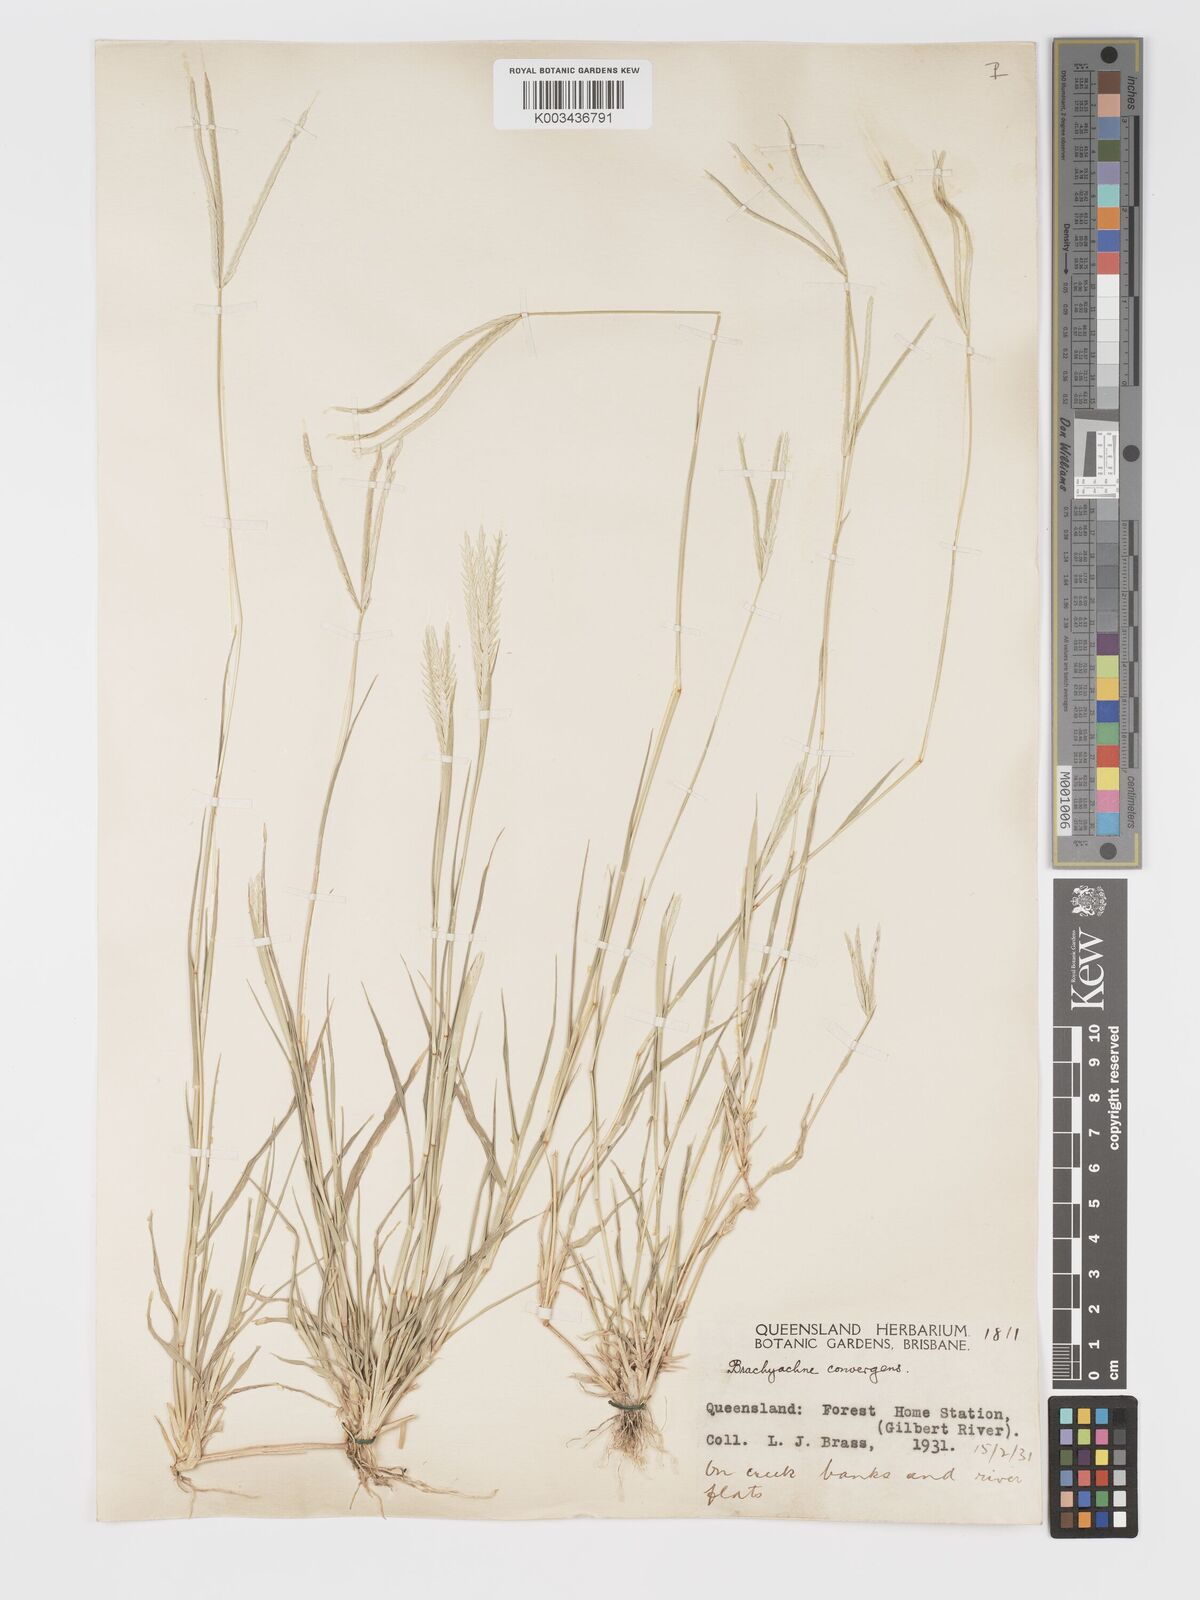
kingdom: Plantae
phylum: Tracheophyta
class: Liliopsida
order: Poales
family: Poaceae
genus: Cynodon
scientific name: Cynodon convergens
